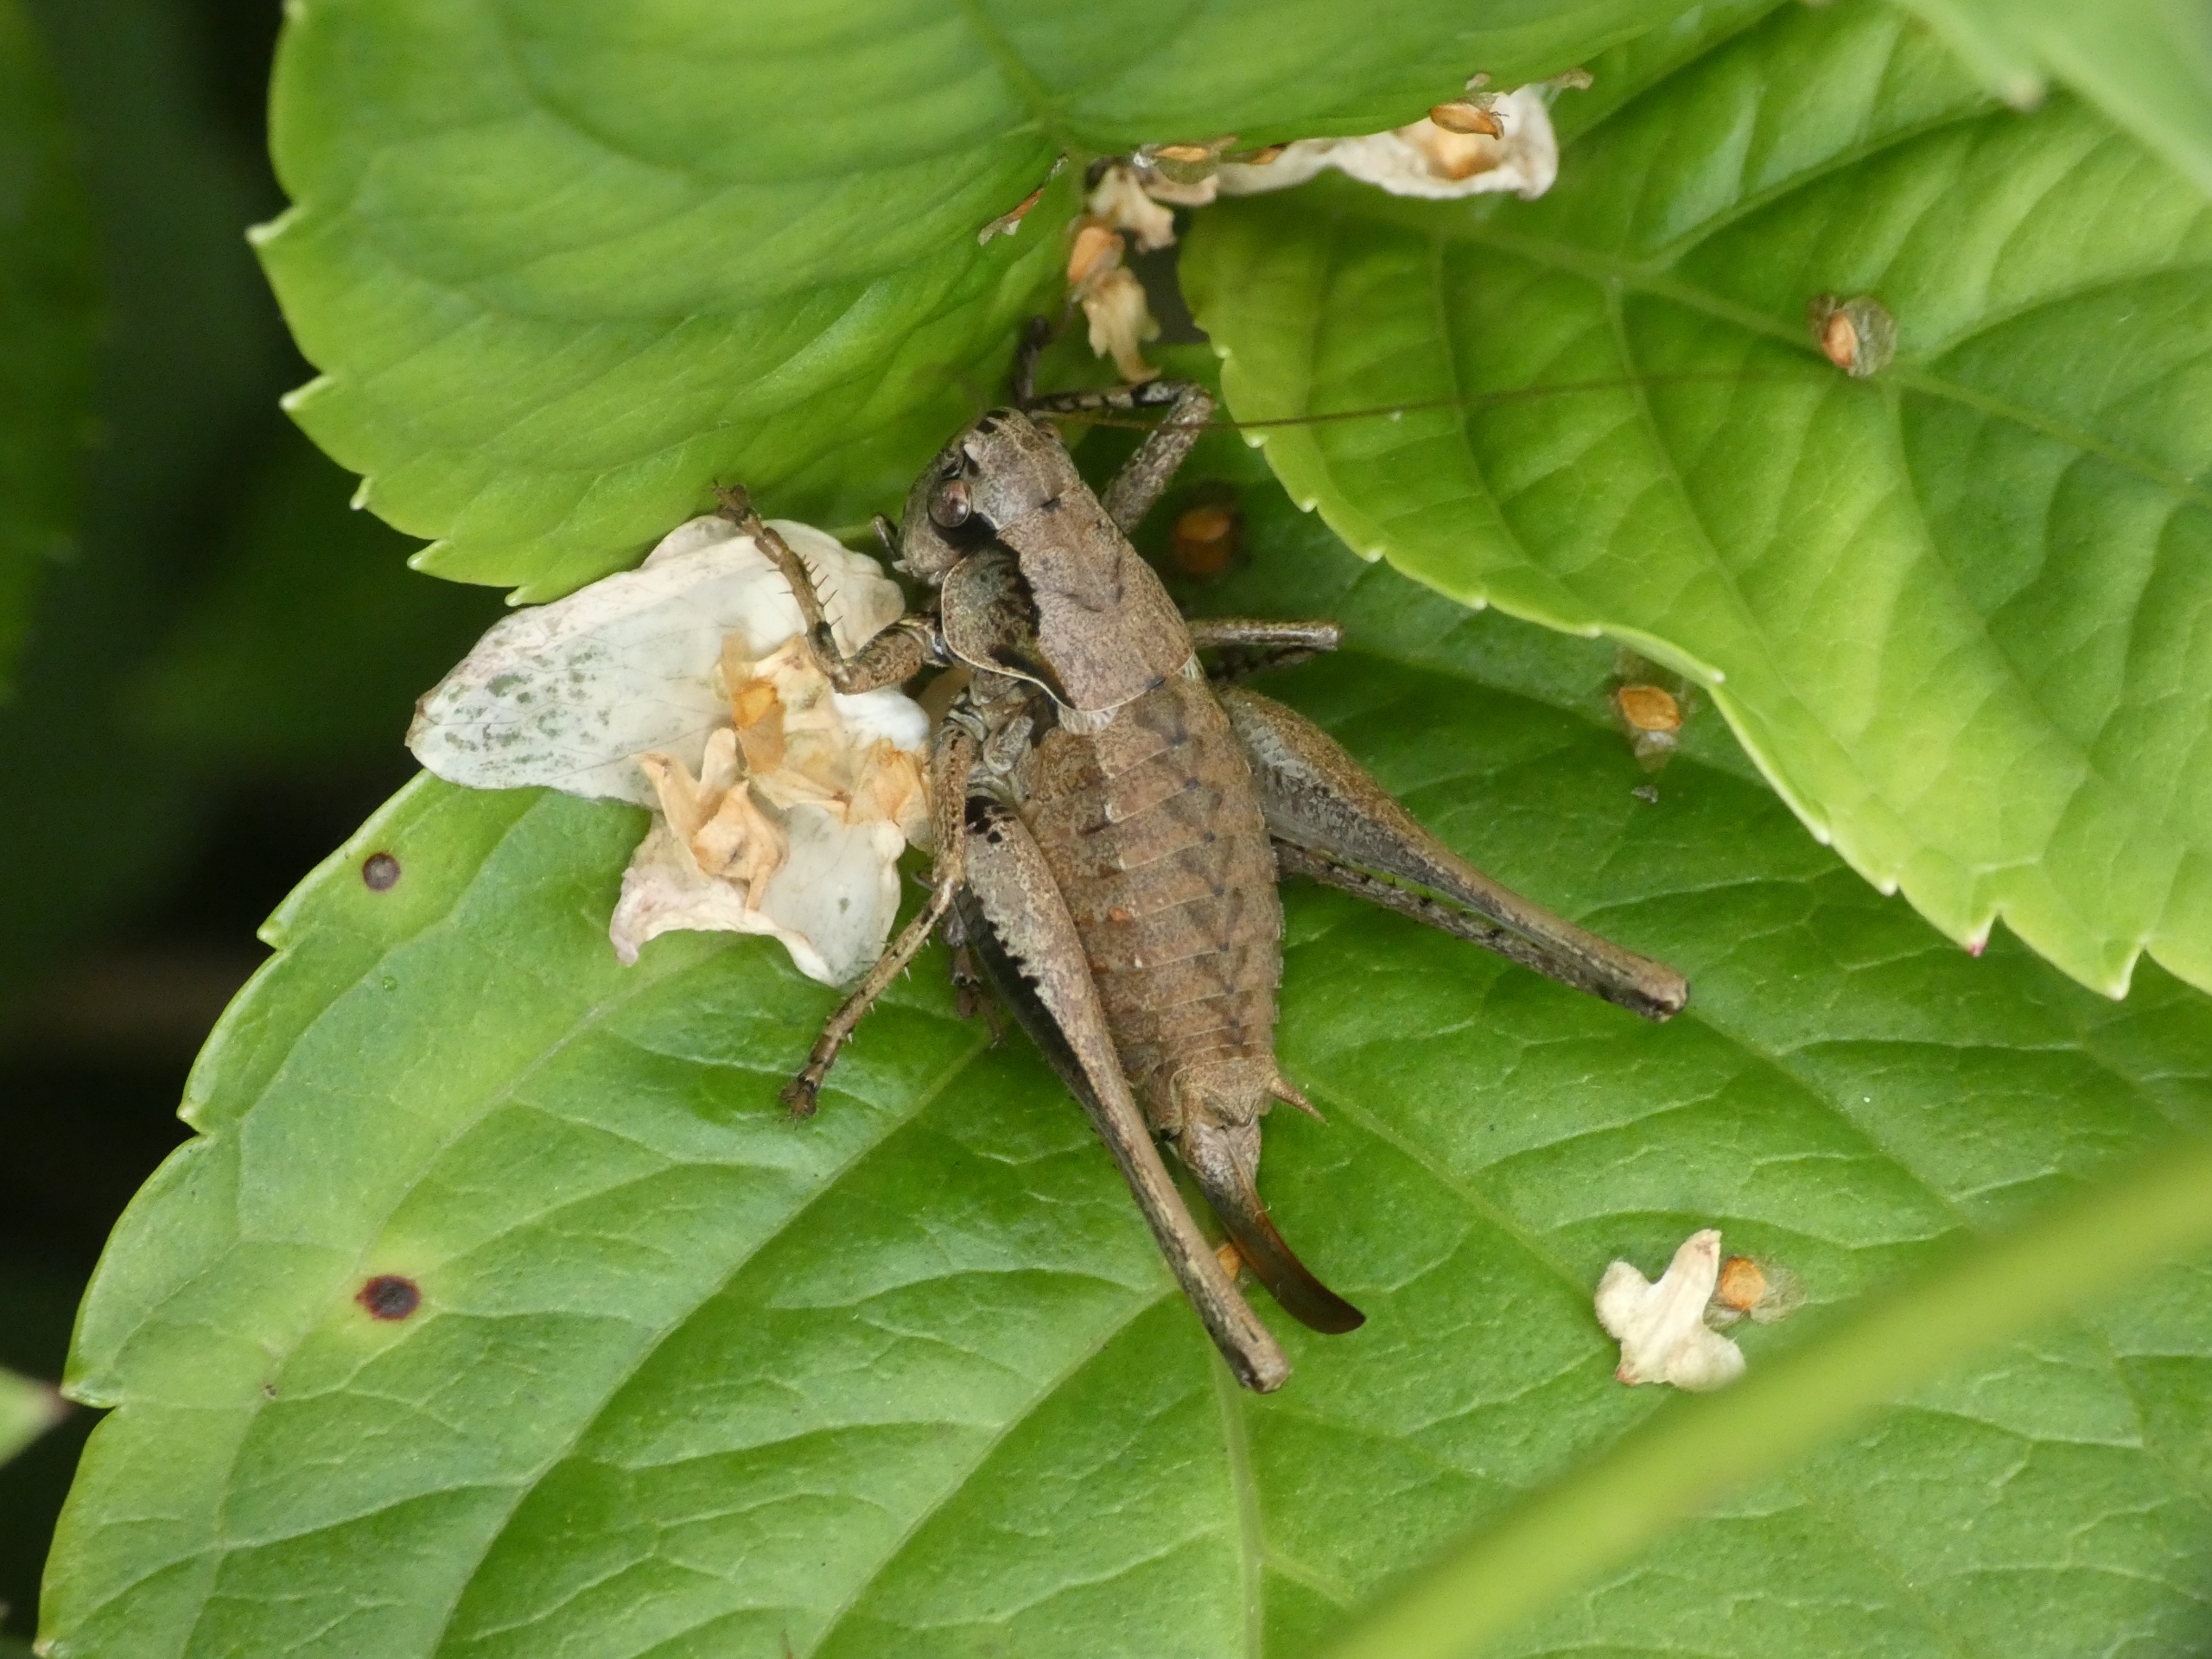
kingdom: Animalia
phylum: Arthropoda
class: Insecta
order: Orthoptera
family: Tettigoniidae
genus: Pholidoptera
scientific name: Pholidoptera griseoaptera
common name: Buskgræshoppe
